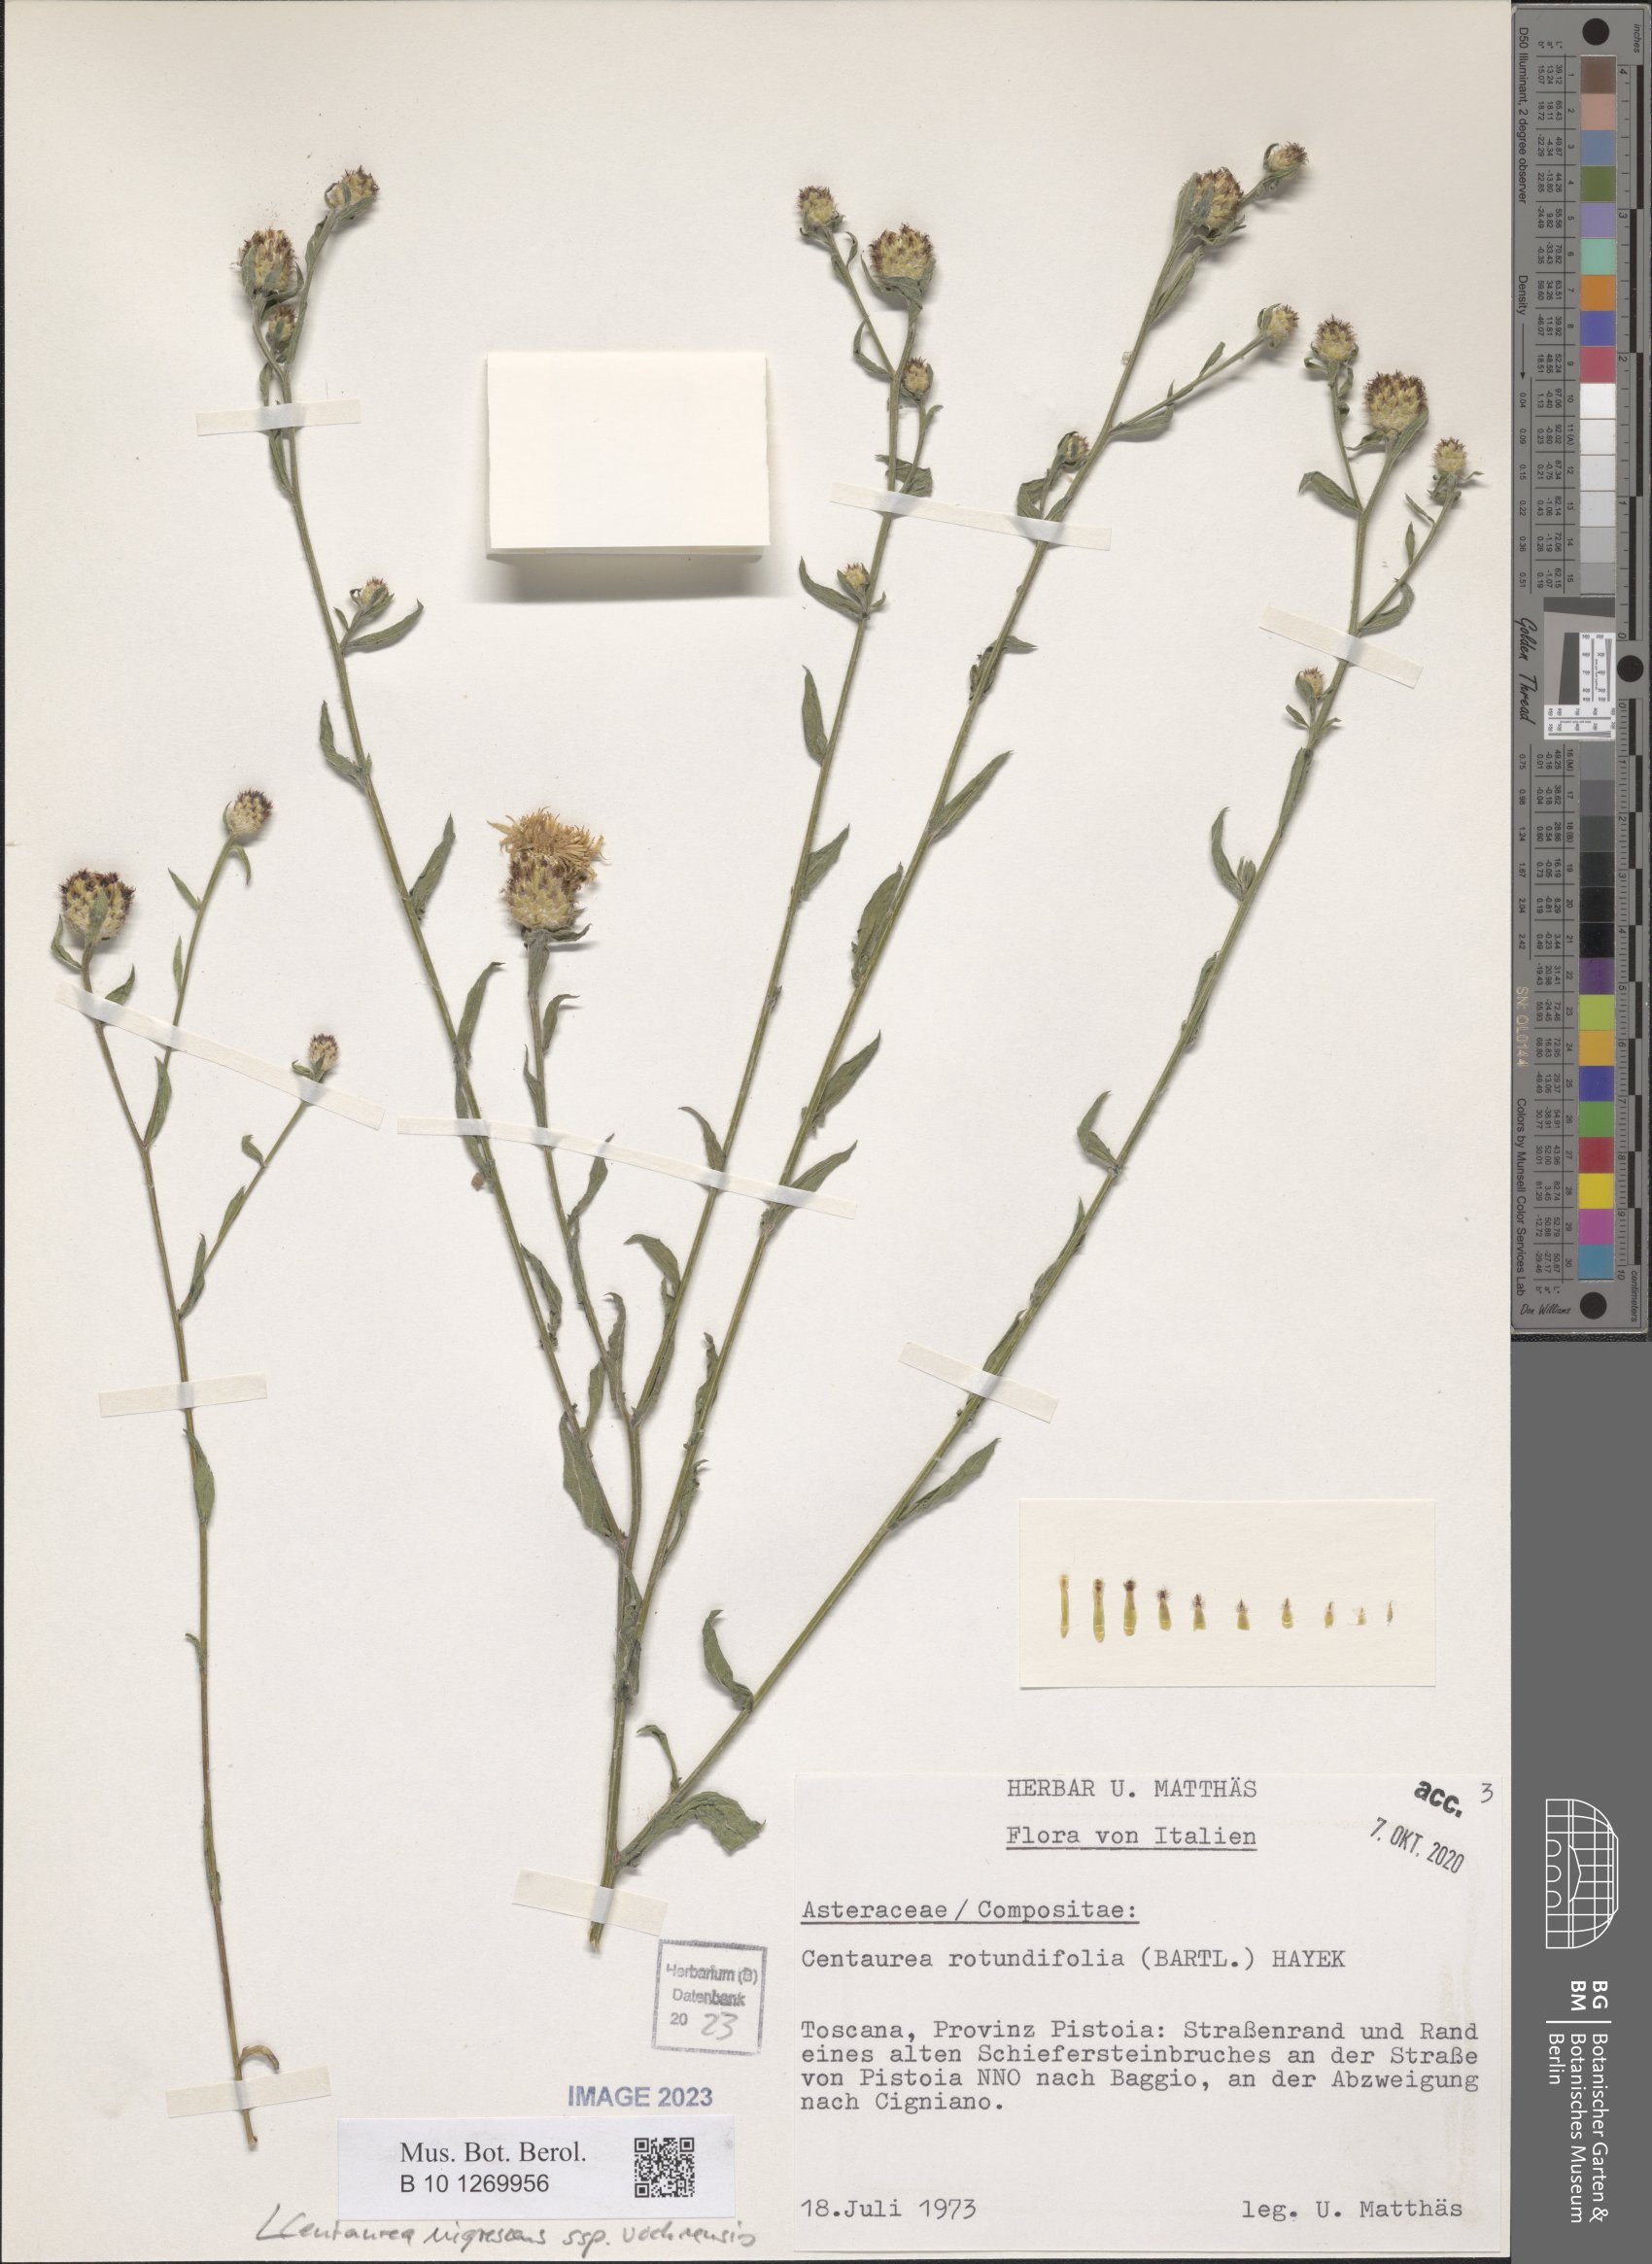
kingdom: Plantae
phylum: Tracheophyta
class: Magnoliopsida
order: Asterales
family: Asteraceae
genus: Centaurea
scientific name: Centaurea carniolica
